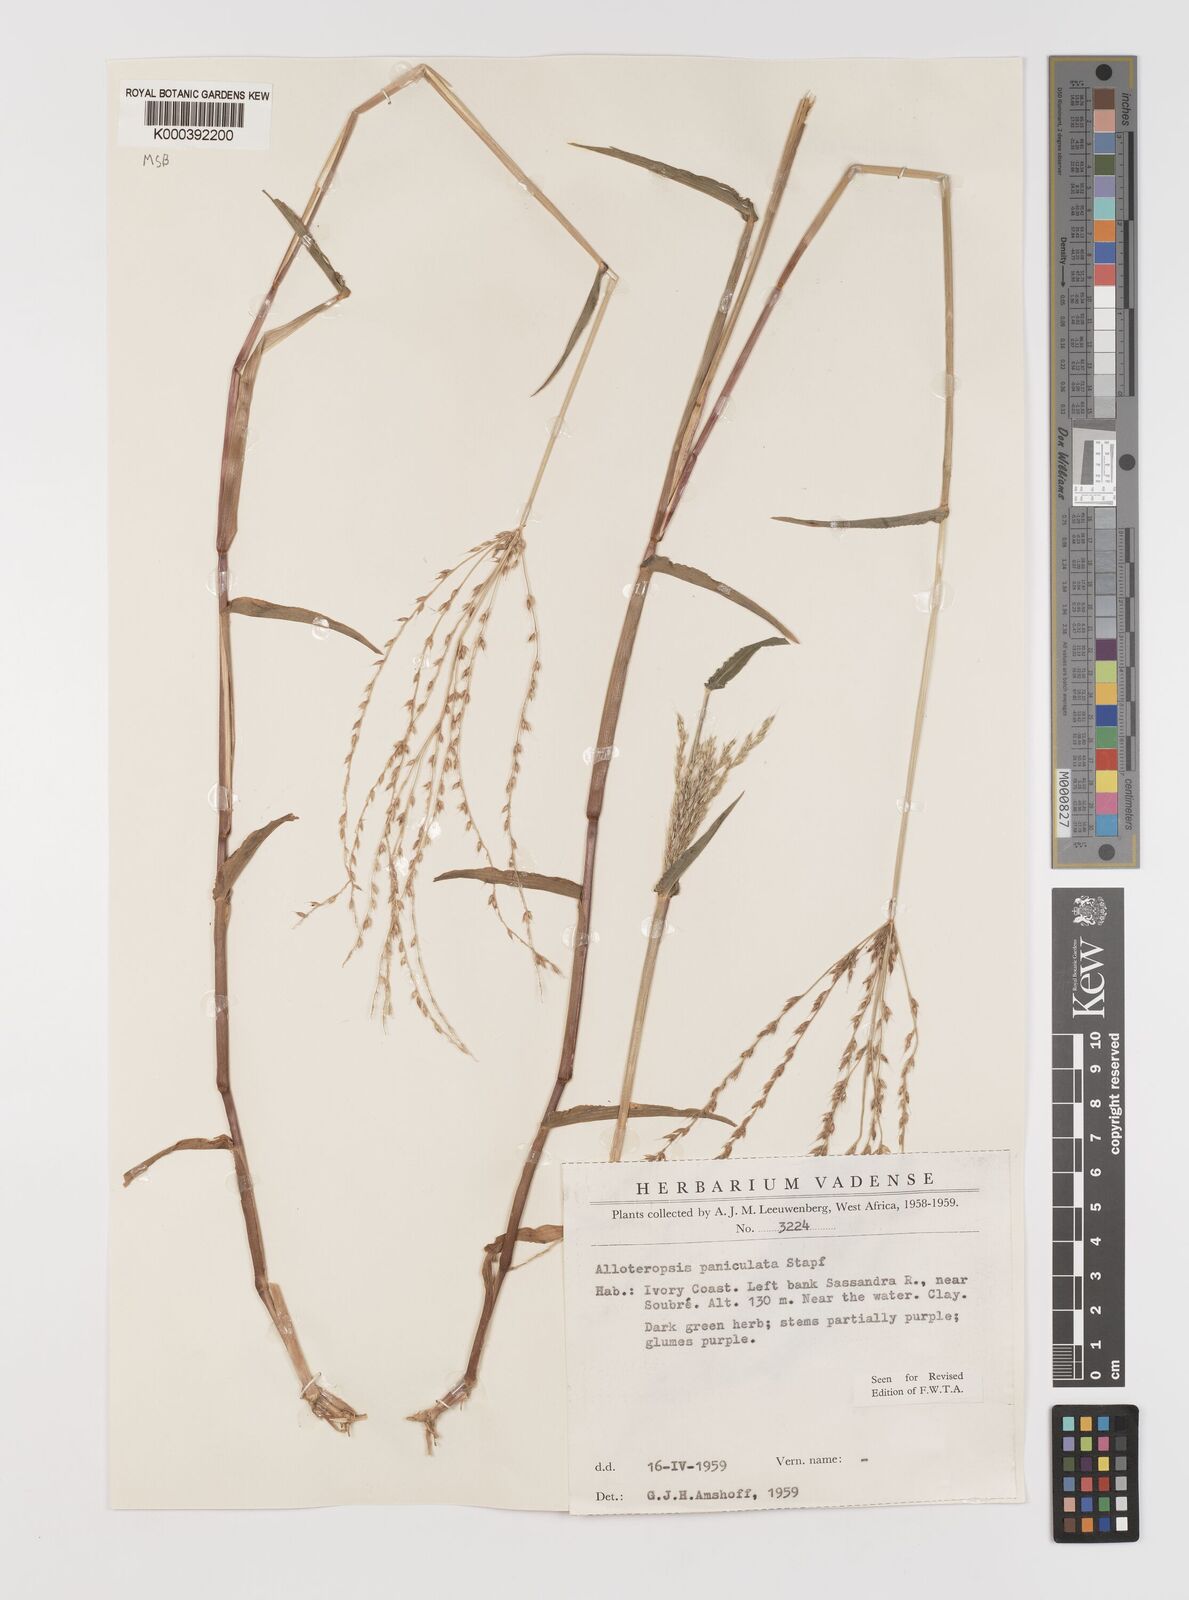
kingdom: Plantae
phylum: Tracheophyta
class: Liliopsida
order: Poales
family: Poaceae
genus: Alloteropsis
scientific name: Alloteropsis paniculata
